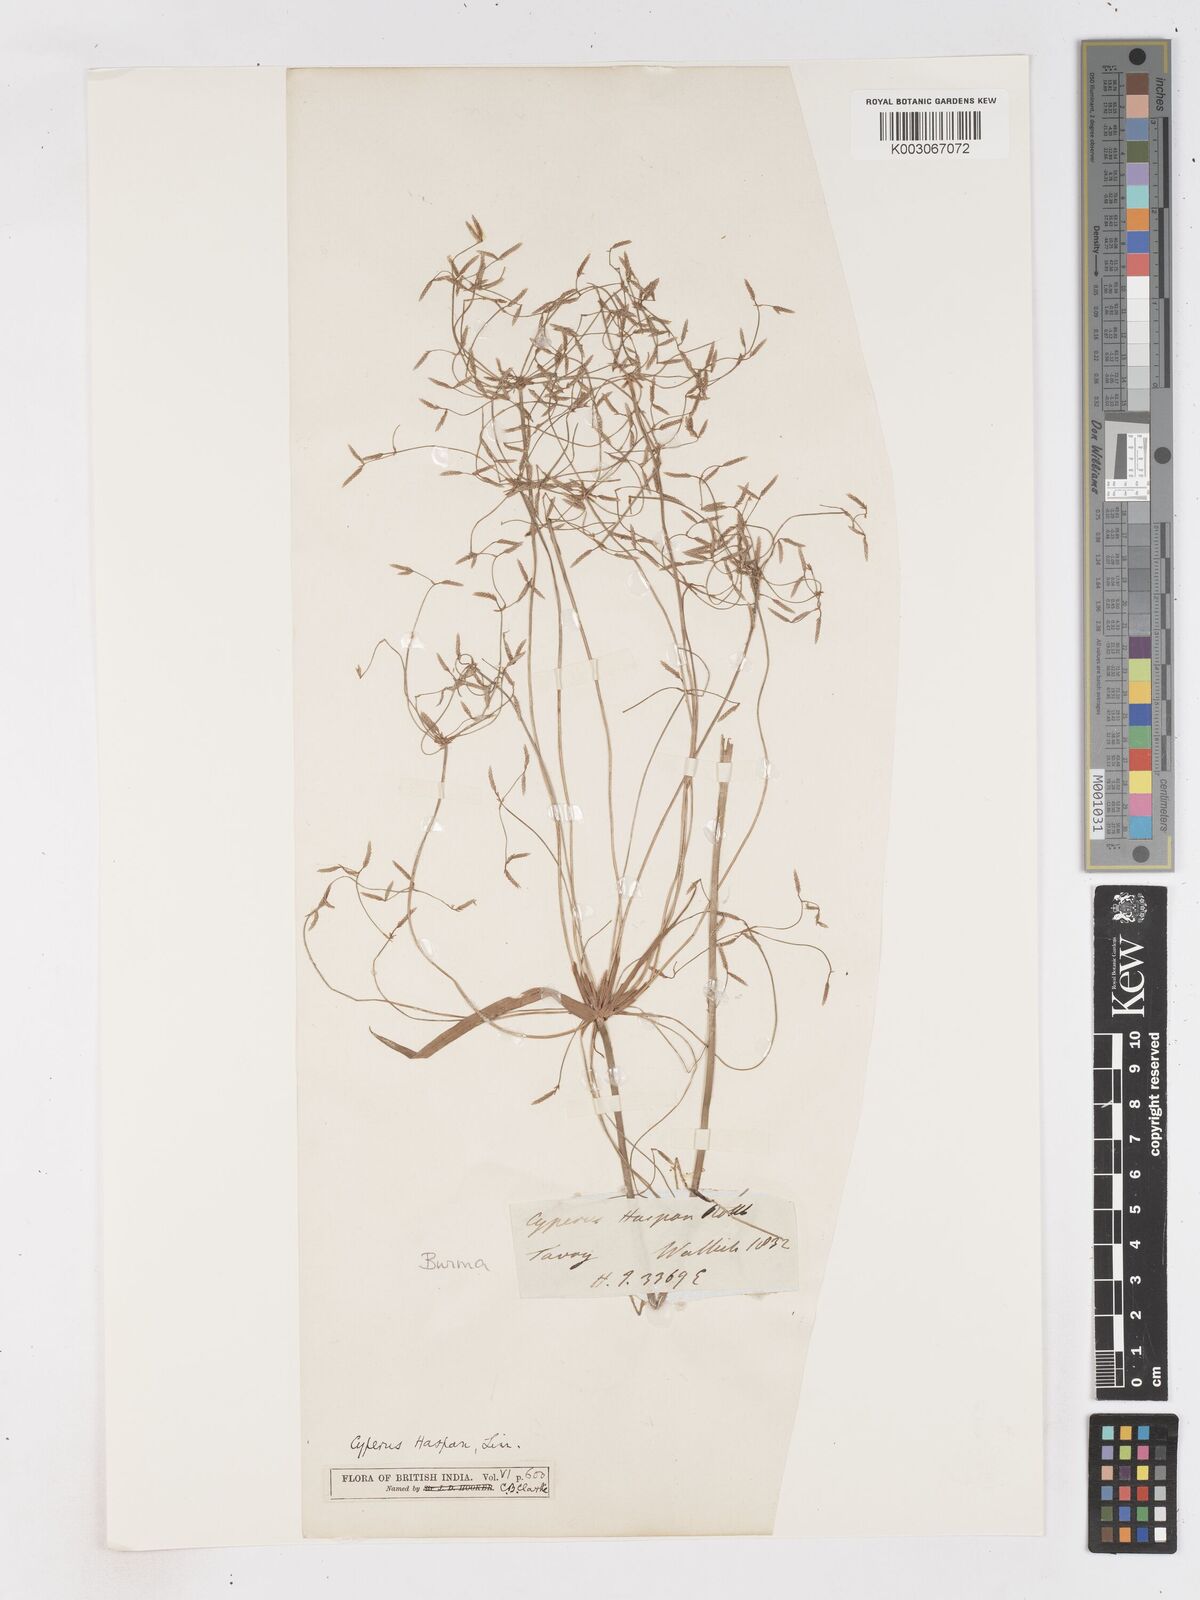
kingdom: Plantae
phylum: Tracheophyta
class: Liliopsida
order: Poales
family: Cyperaceae
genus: Cyperus
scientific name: Cyperus haspan
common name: Haspan flatsedge
